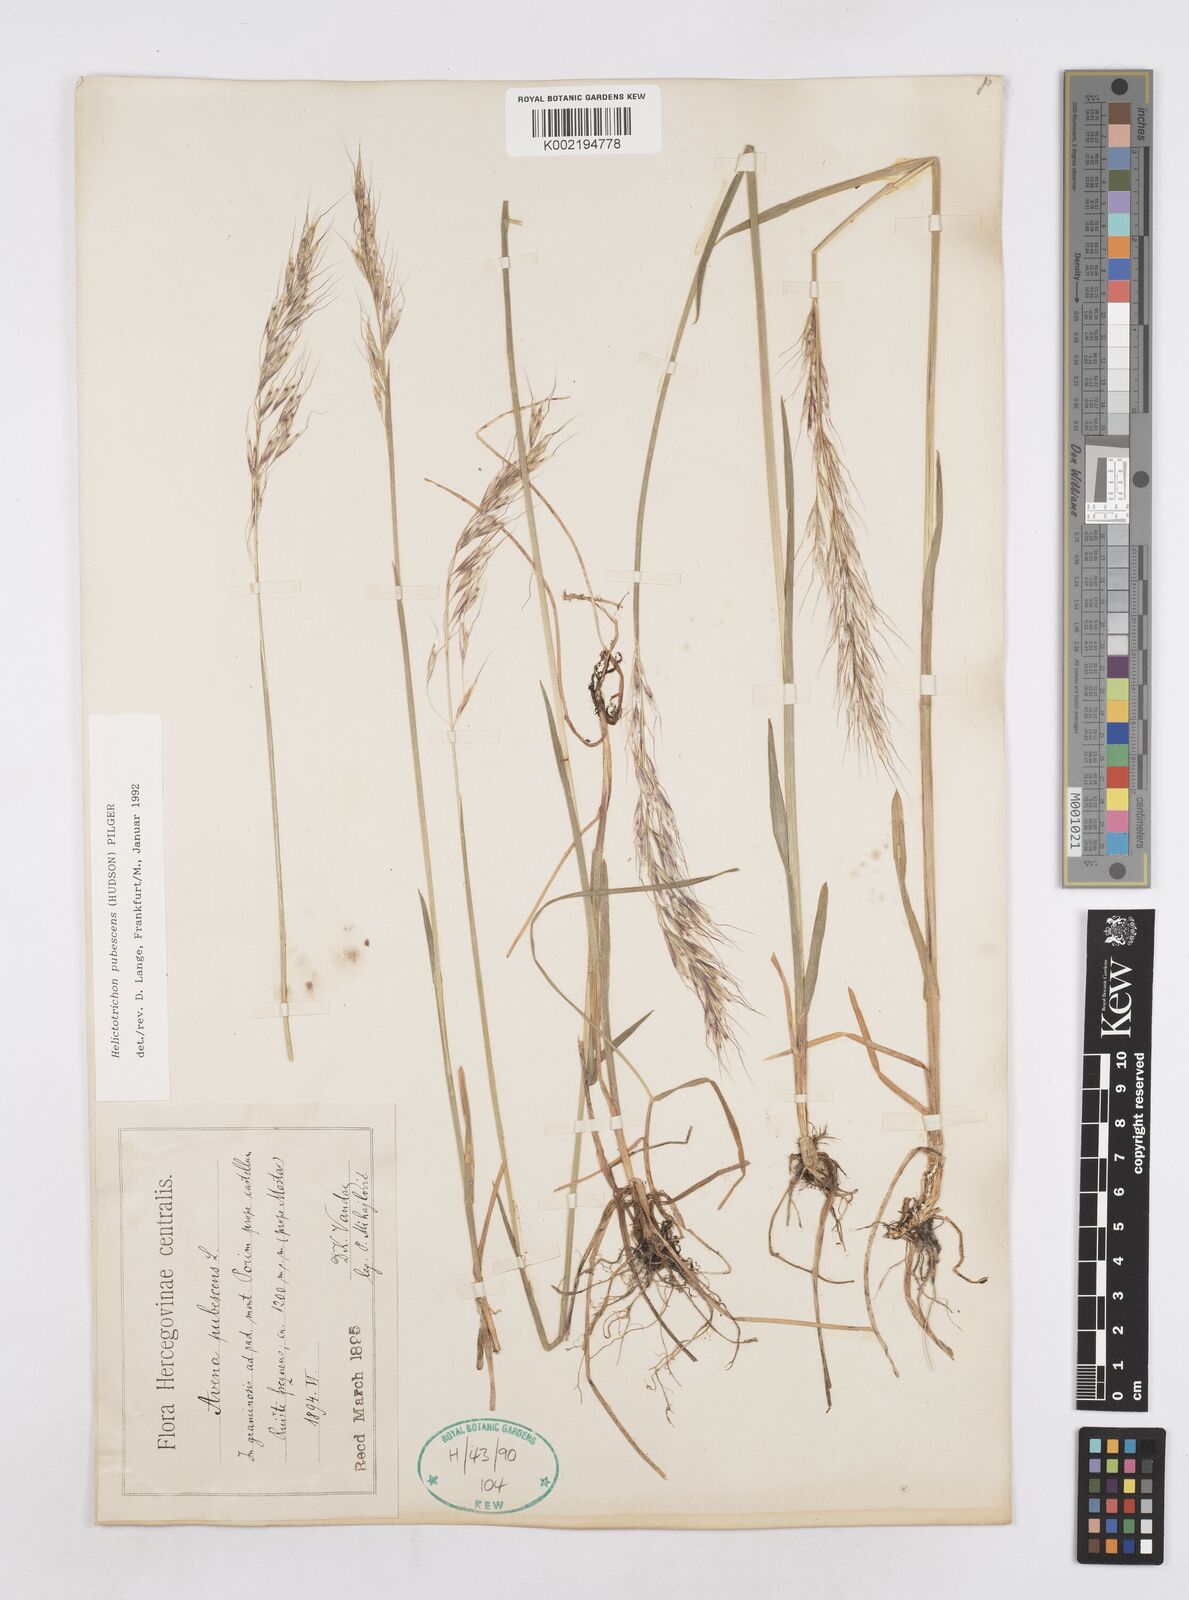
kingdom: Plantae
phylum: Tracheophyta
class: Liliopsida
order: Poales
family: Poaceae
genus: Avenula
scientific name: Avenula pubescens
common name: Downy alpine oatgrass
